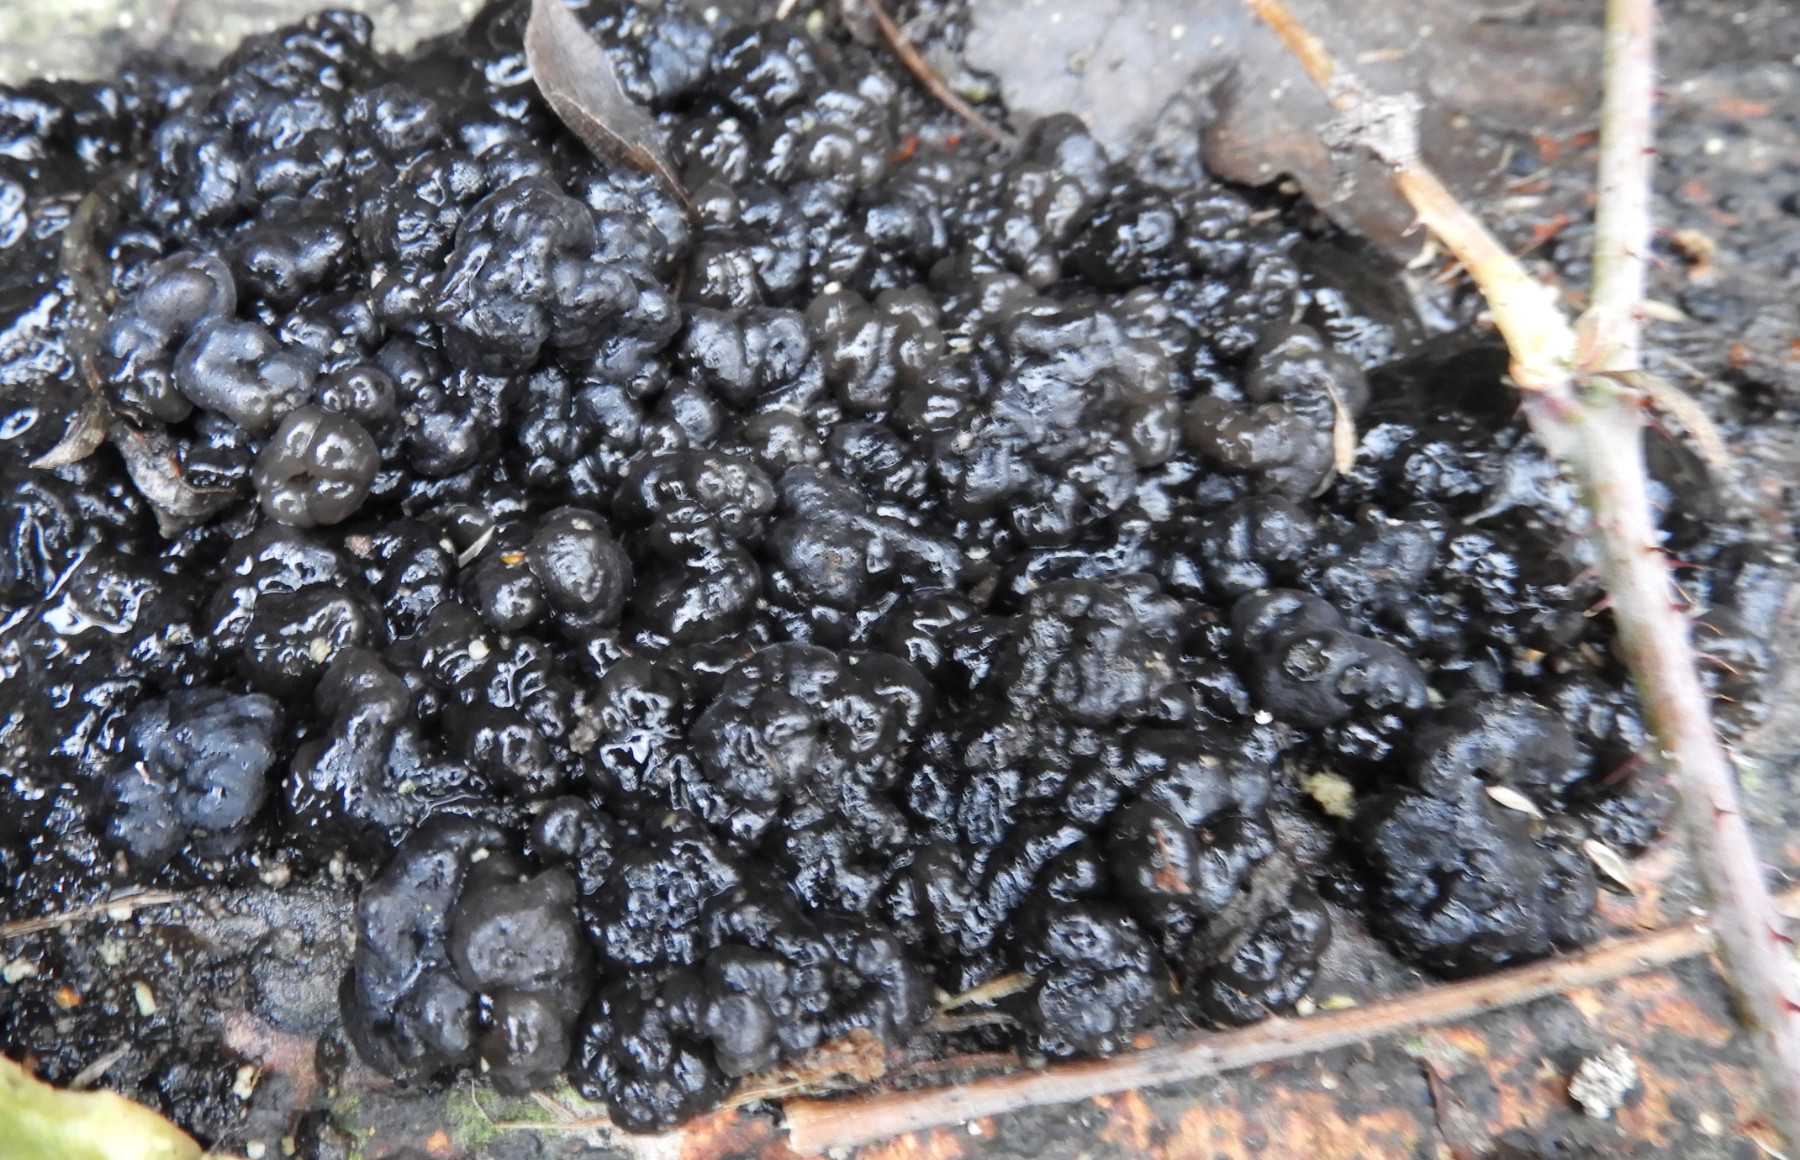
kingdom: Fungi
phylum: Basidiomycota
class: Agaricomycetes
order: Auriculariales
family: Auriculariaceae
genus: Exidia
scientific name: Exidia nigricans
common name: almindelig bævretop
